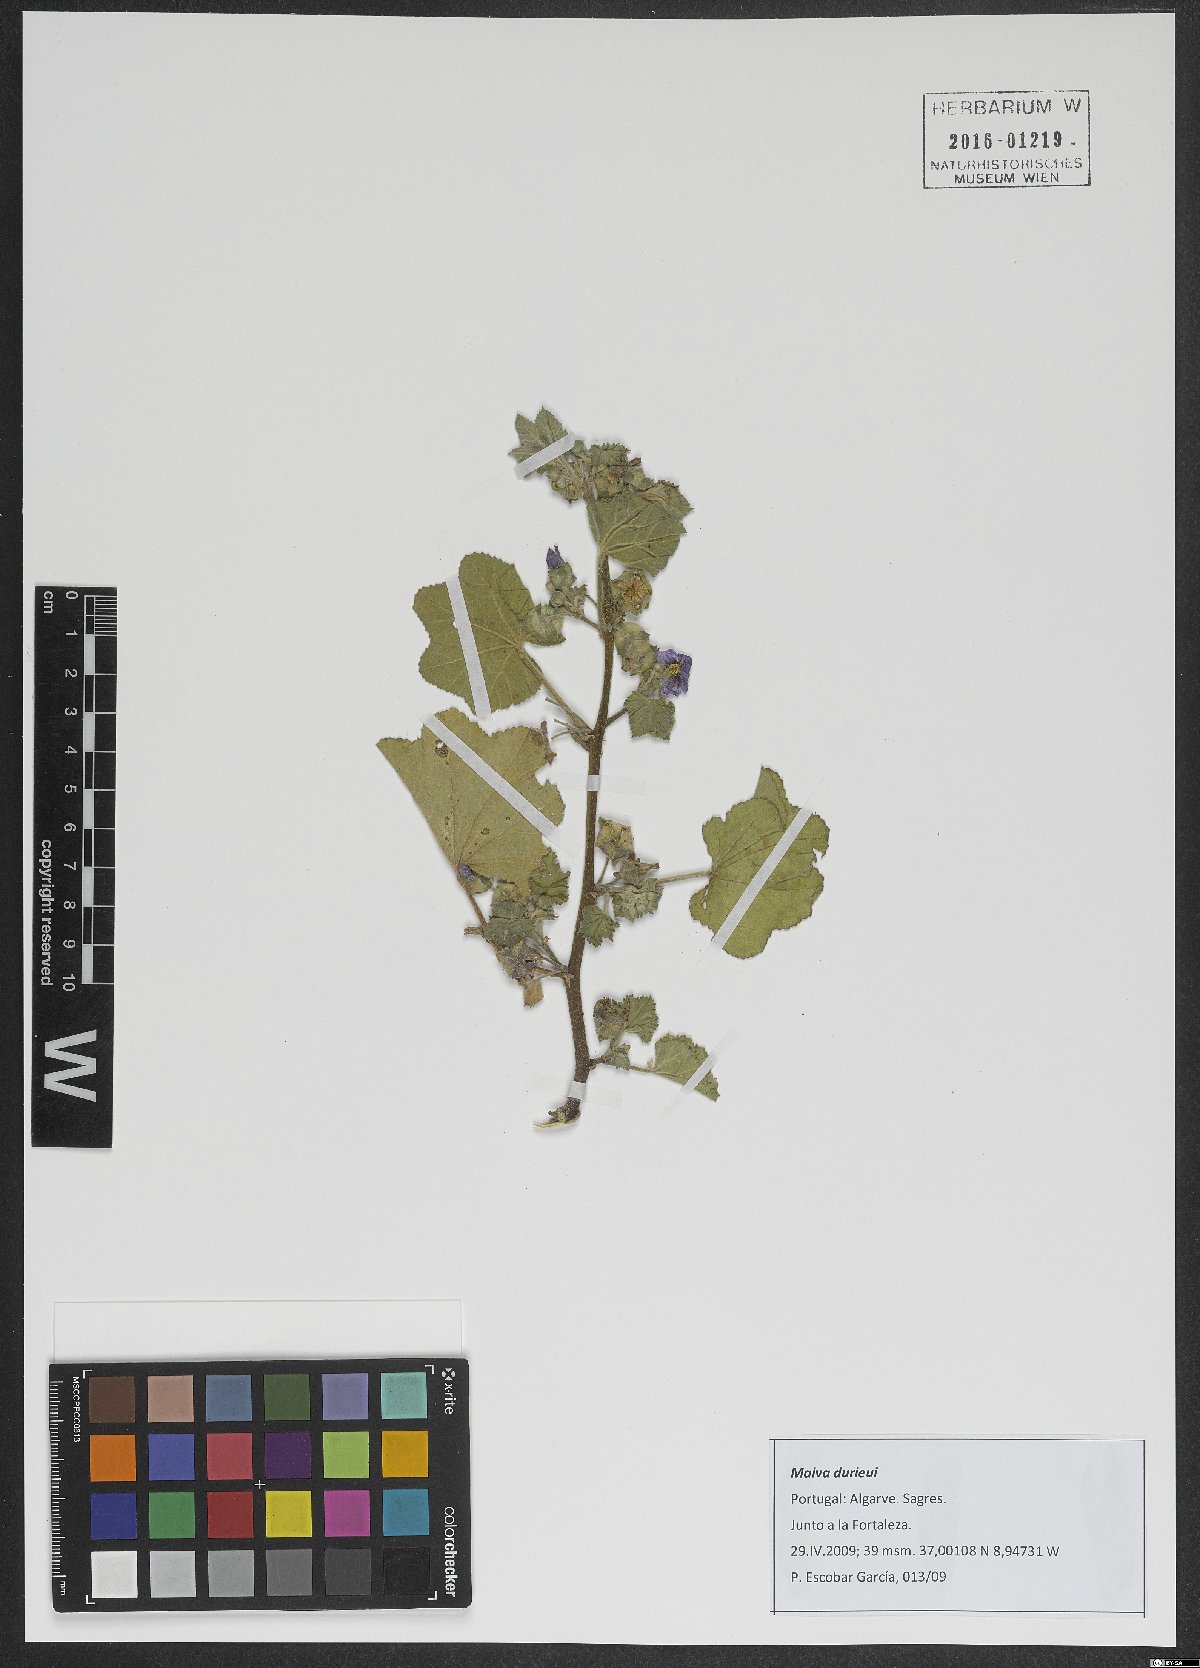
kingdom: Plantae
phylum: Tracheophyta
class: Magnoliopsida
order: Malvales
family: Malvaceae
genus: Malva
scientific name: Malva durieui
